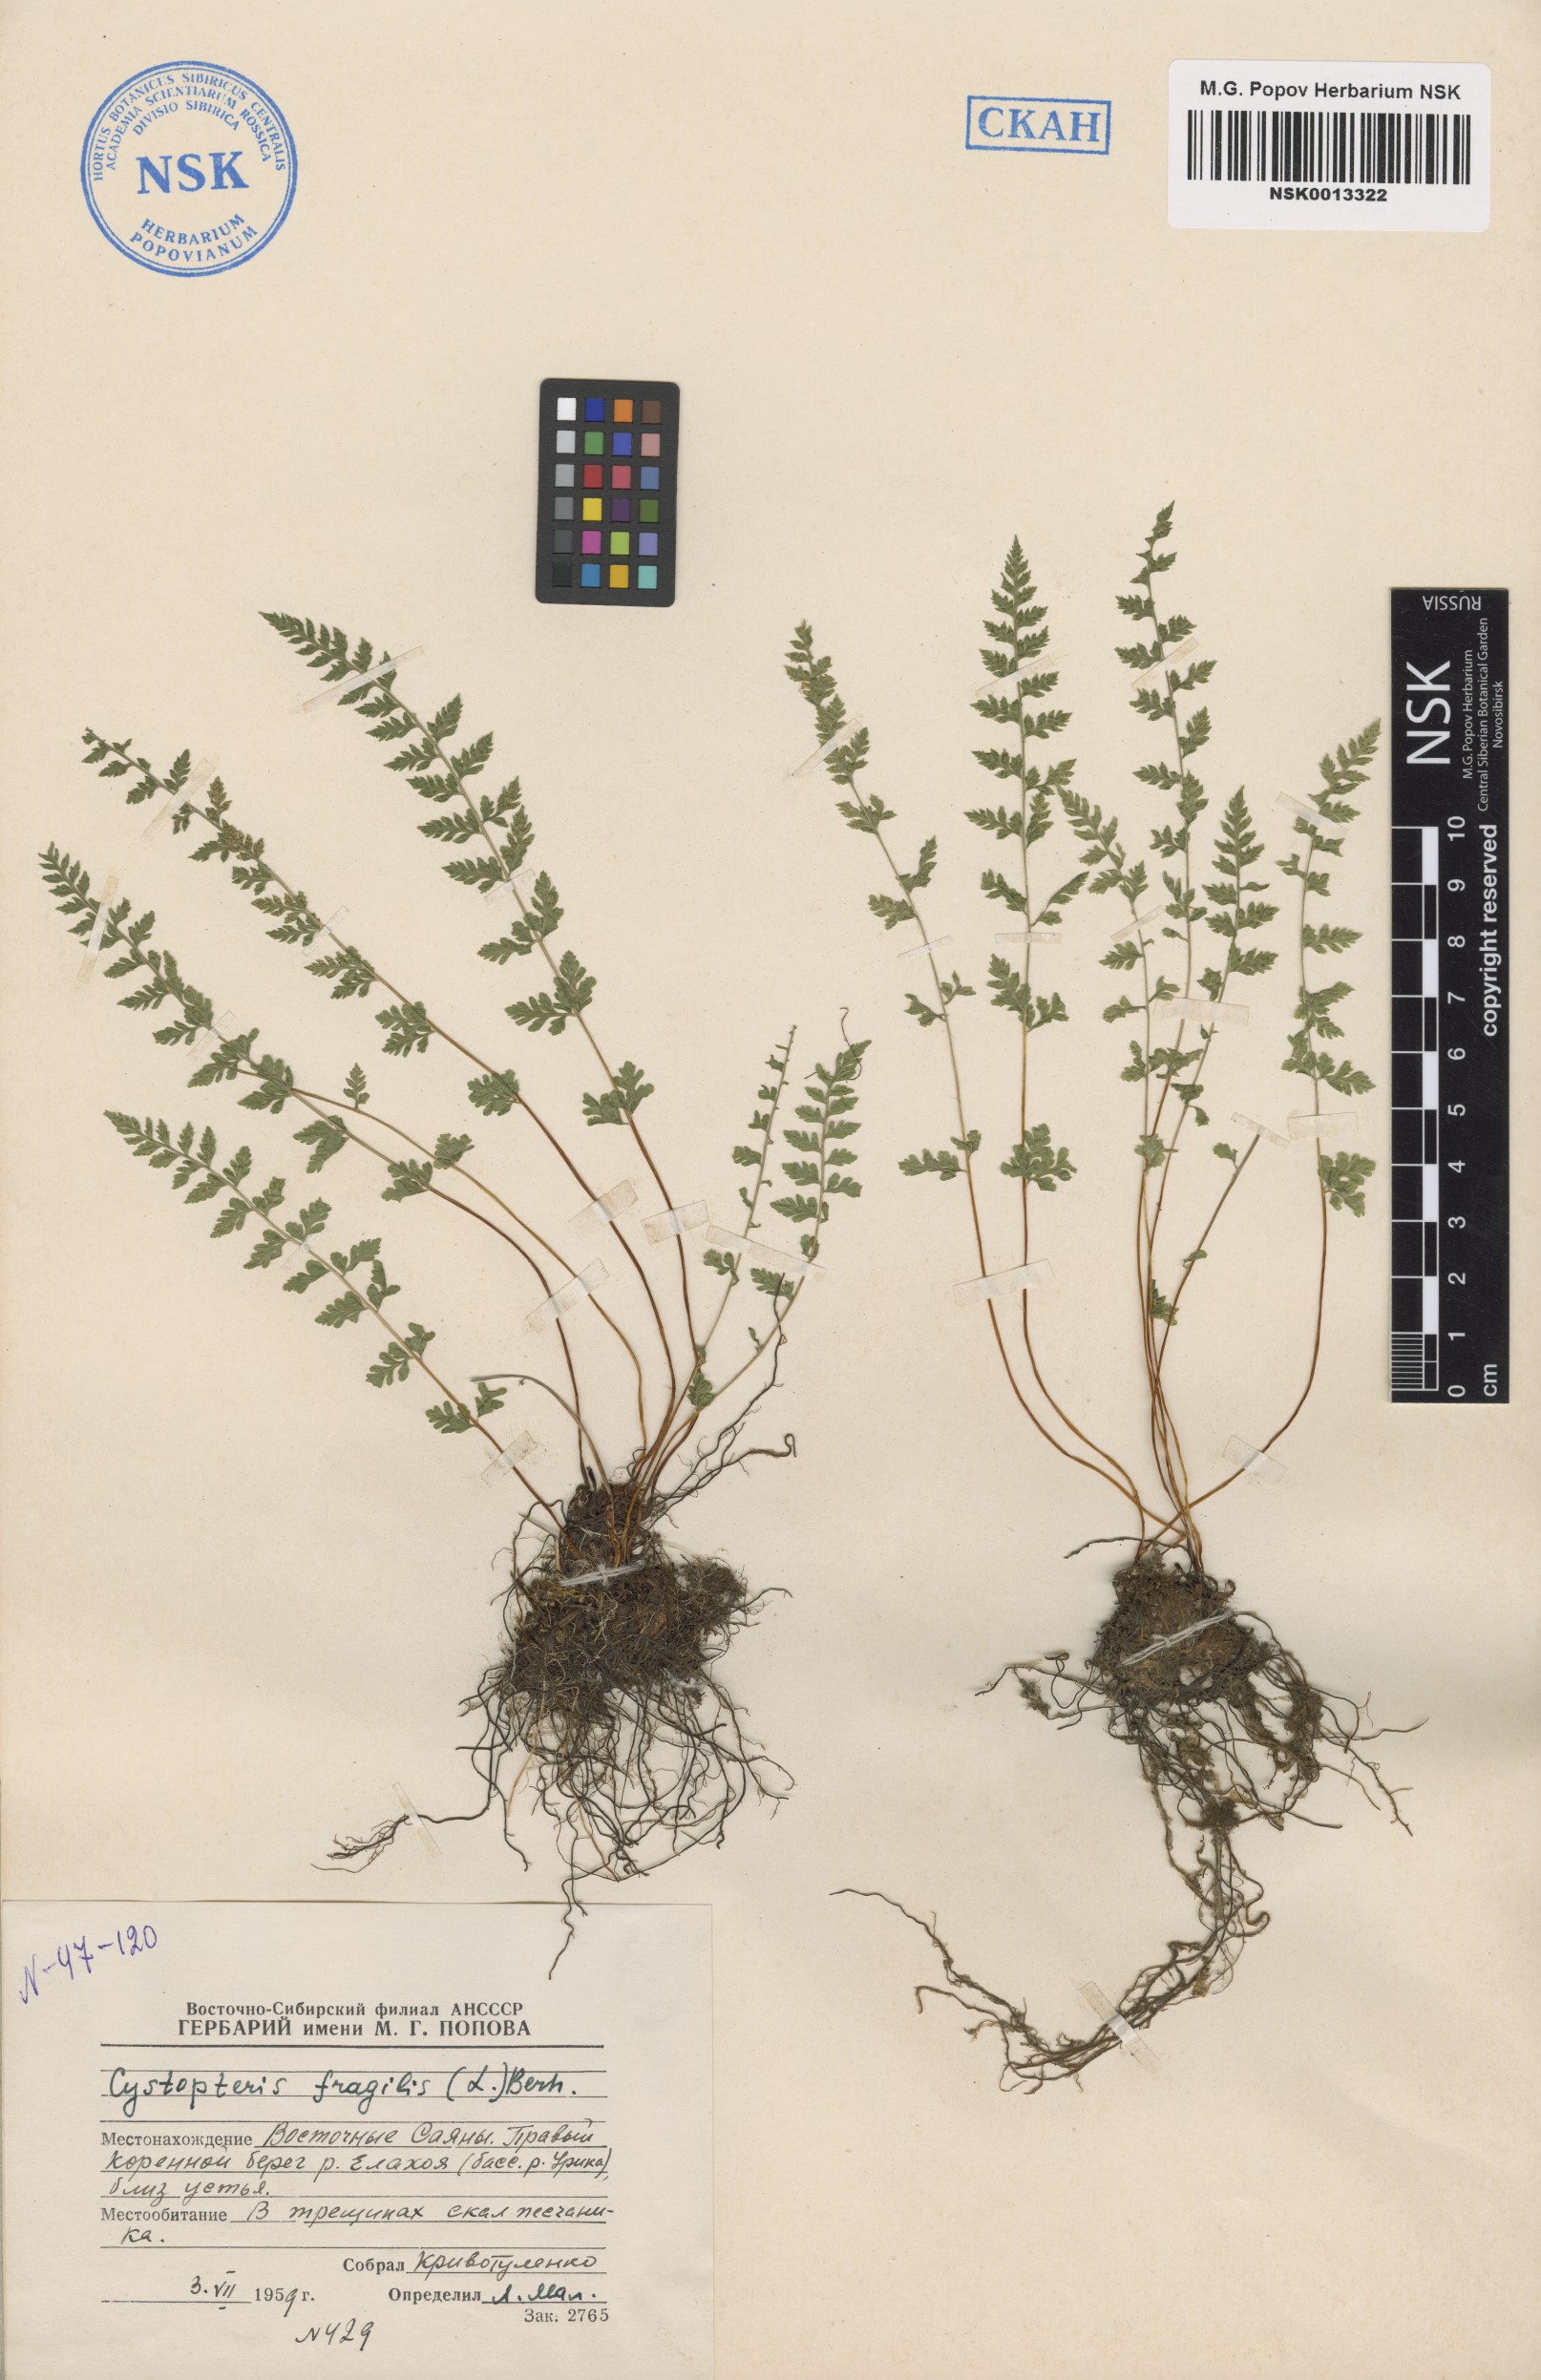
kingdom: Plantae
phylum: Tracheophyta
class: Polypodiopsida
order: Polypodiales
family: Cystopteridaceae
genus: Cystopteris
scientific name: Cystopteris fragilis
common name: Brittle bladder fern
